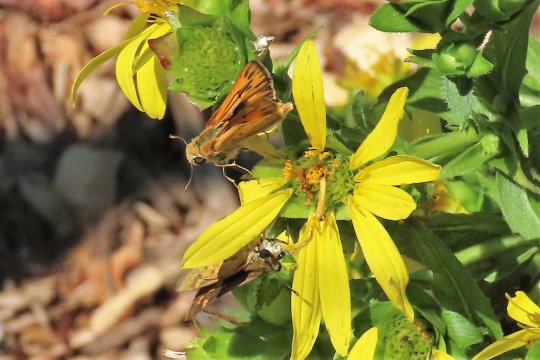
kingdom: Animalia
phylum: Arthropoda
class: Insecta
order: Lepidoptera
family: Hesperiidae
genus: Hylephila
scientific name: Hylephila phyleus
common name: Fiery Skipper
